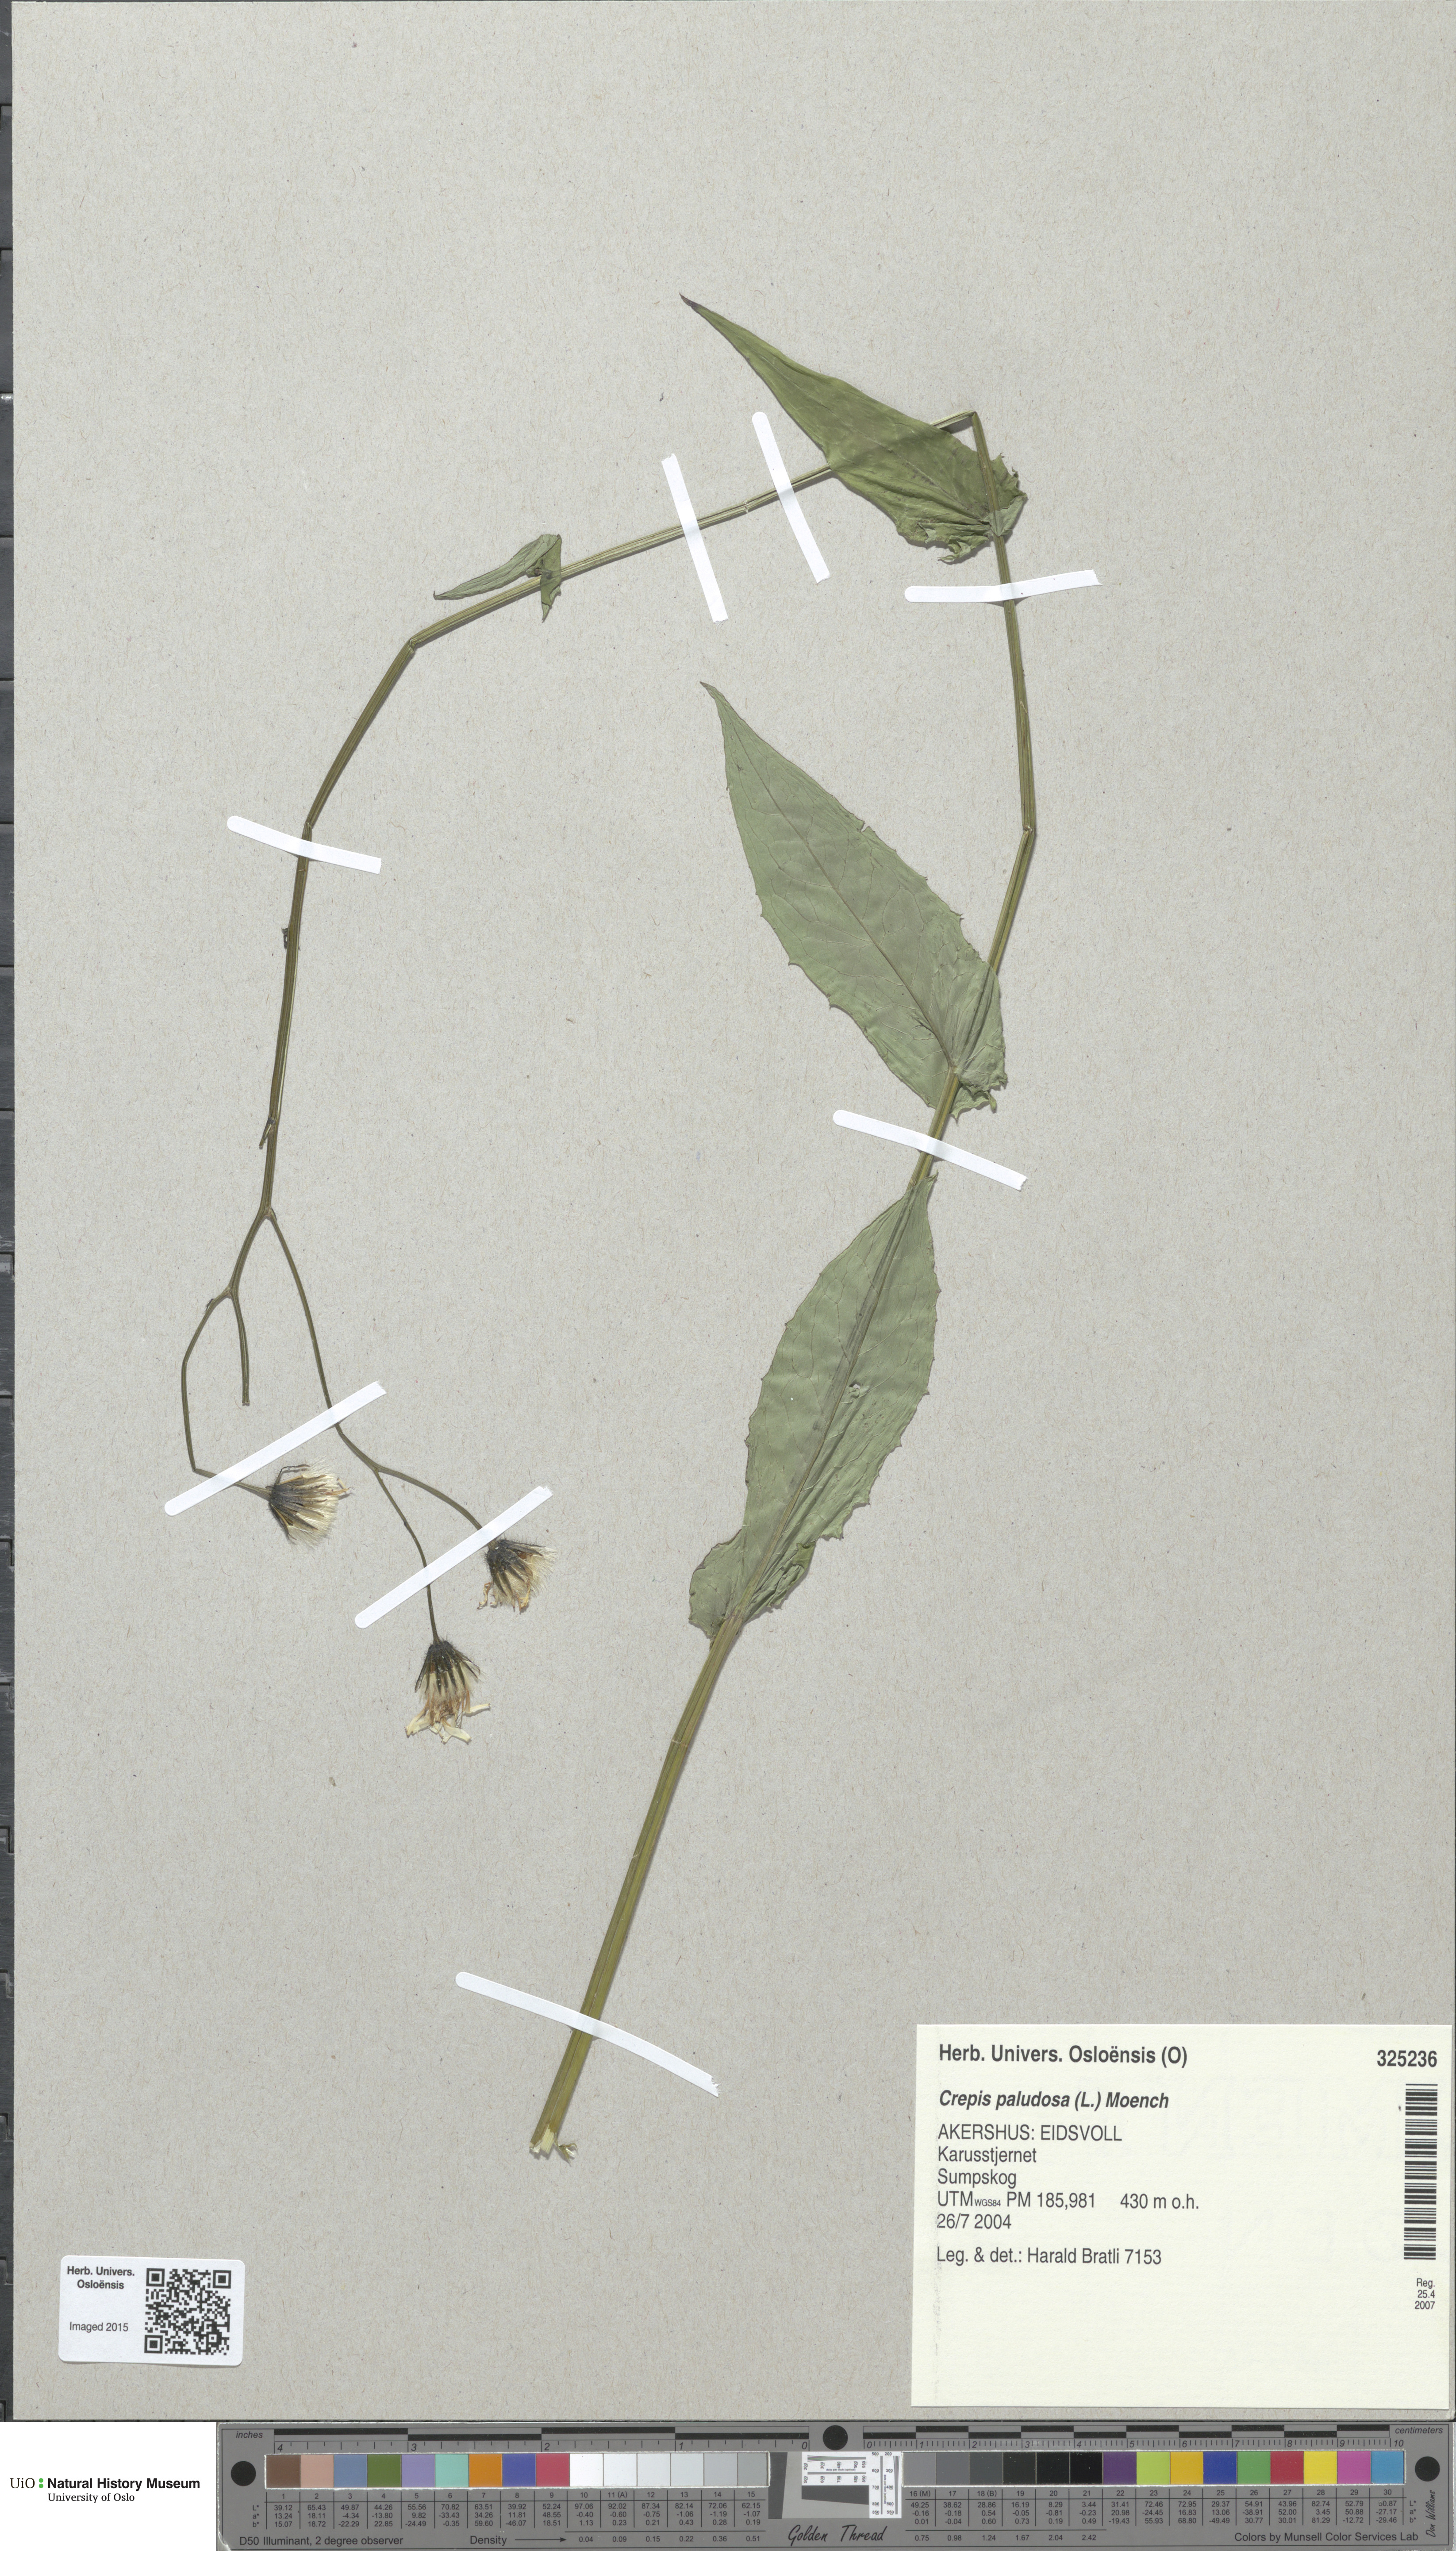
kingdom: Plantae
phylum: Tracheophyta
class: Magnoliopsida
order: Asterales
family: Asteraceae
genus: Crepis
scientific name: Crepis paludosa
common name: Marsh hawk's-beard
